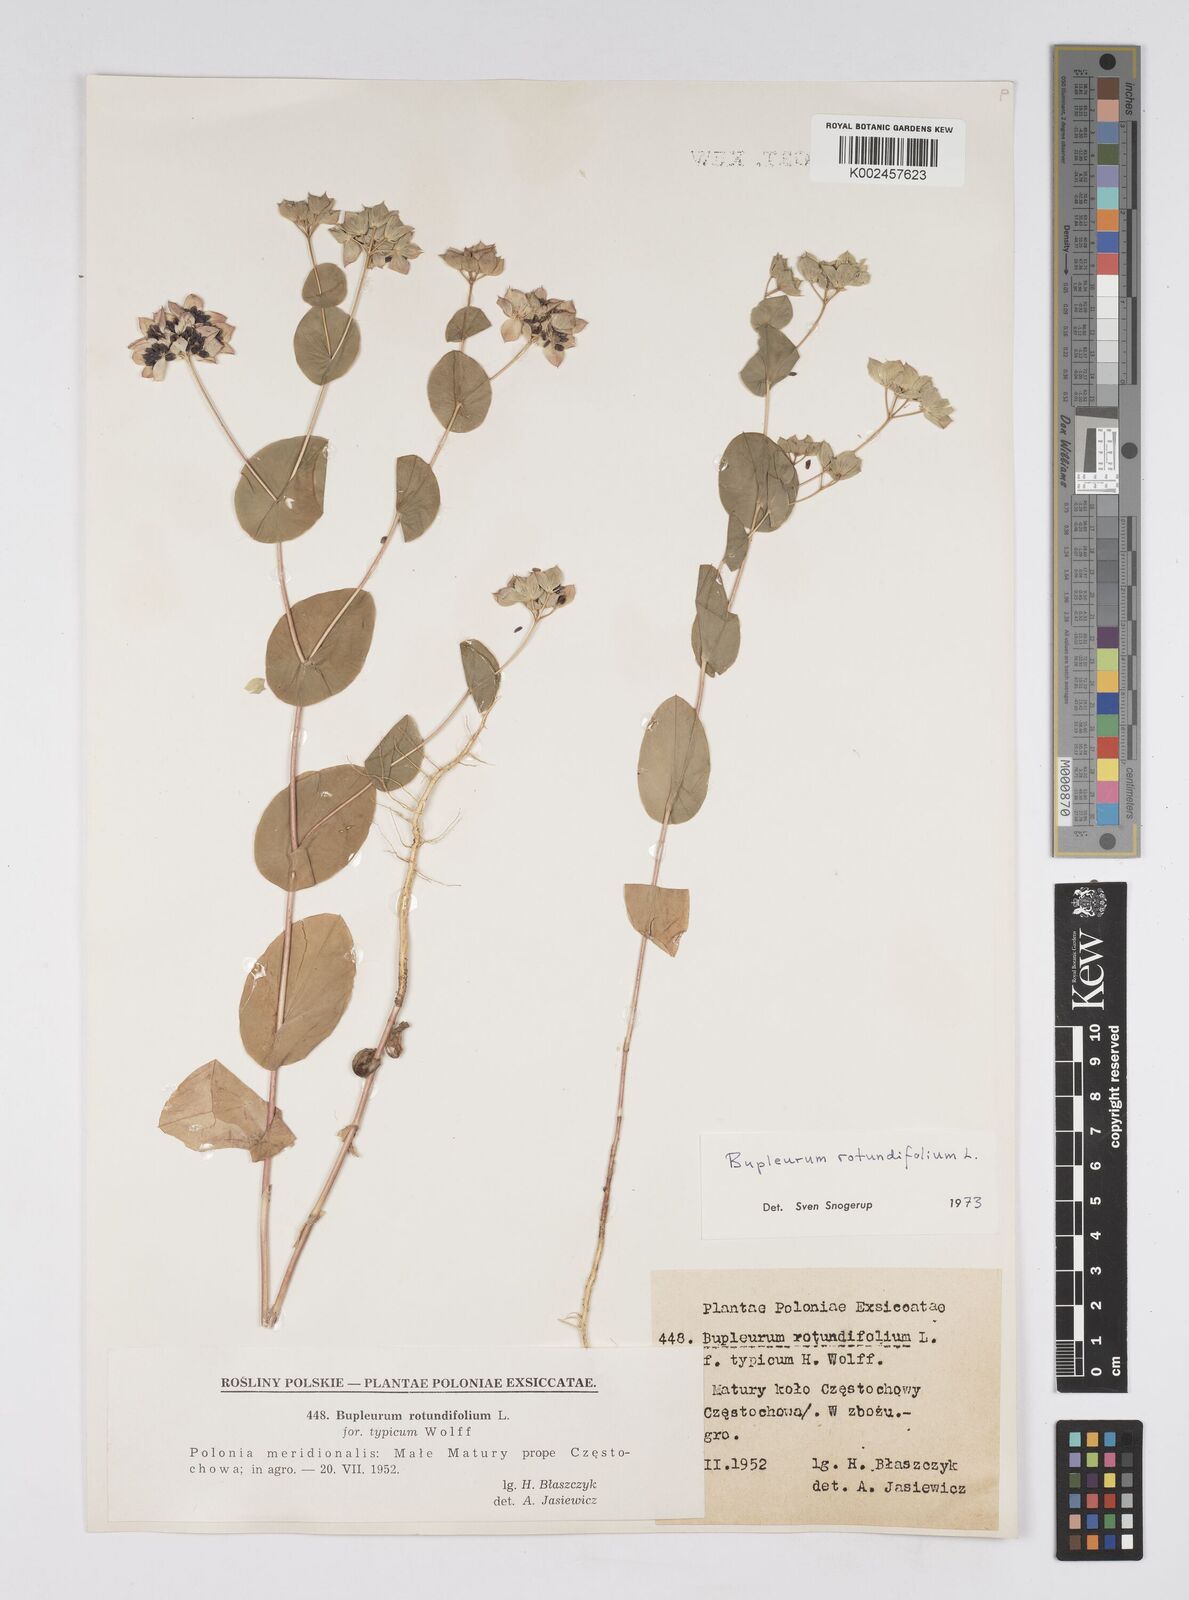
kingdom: Plantae
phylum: Tracheophyta
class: Magnoliopsida
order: Apiales
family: Apiaceae
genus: Bupleurum
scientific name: Bupleurum rotundifolium
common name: Thorow-wax
